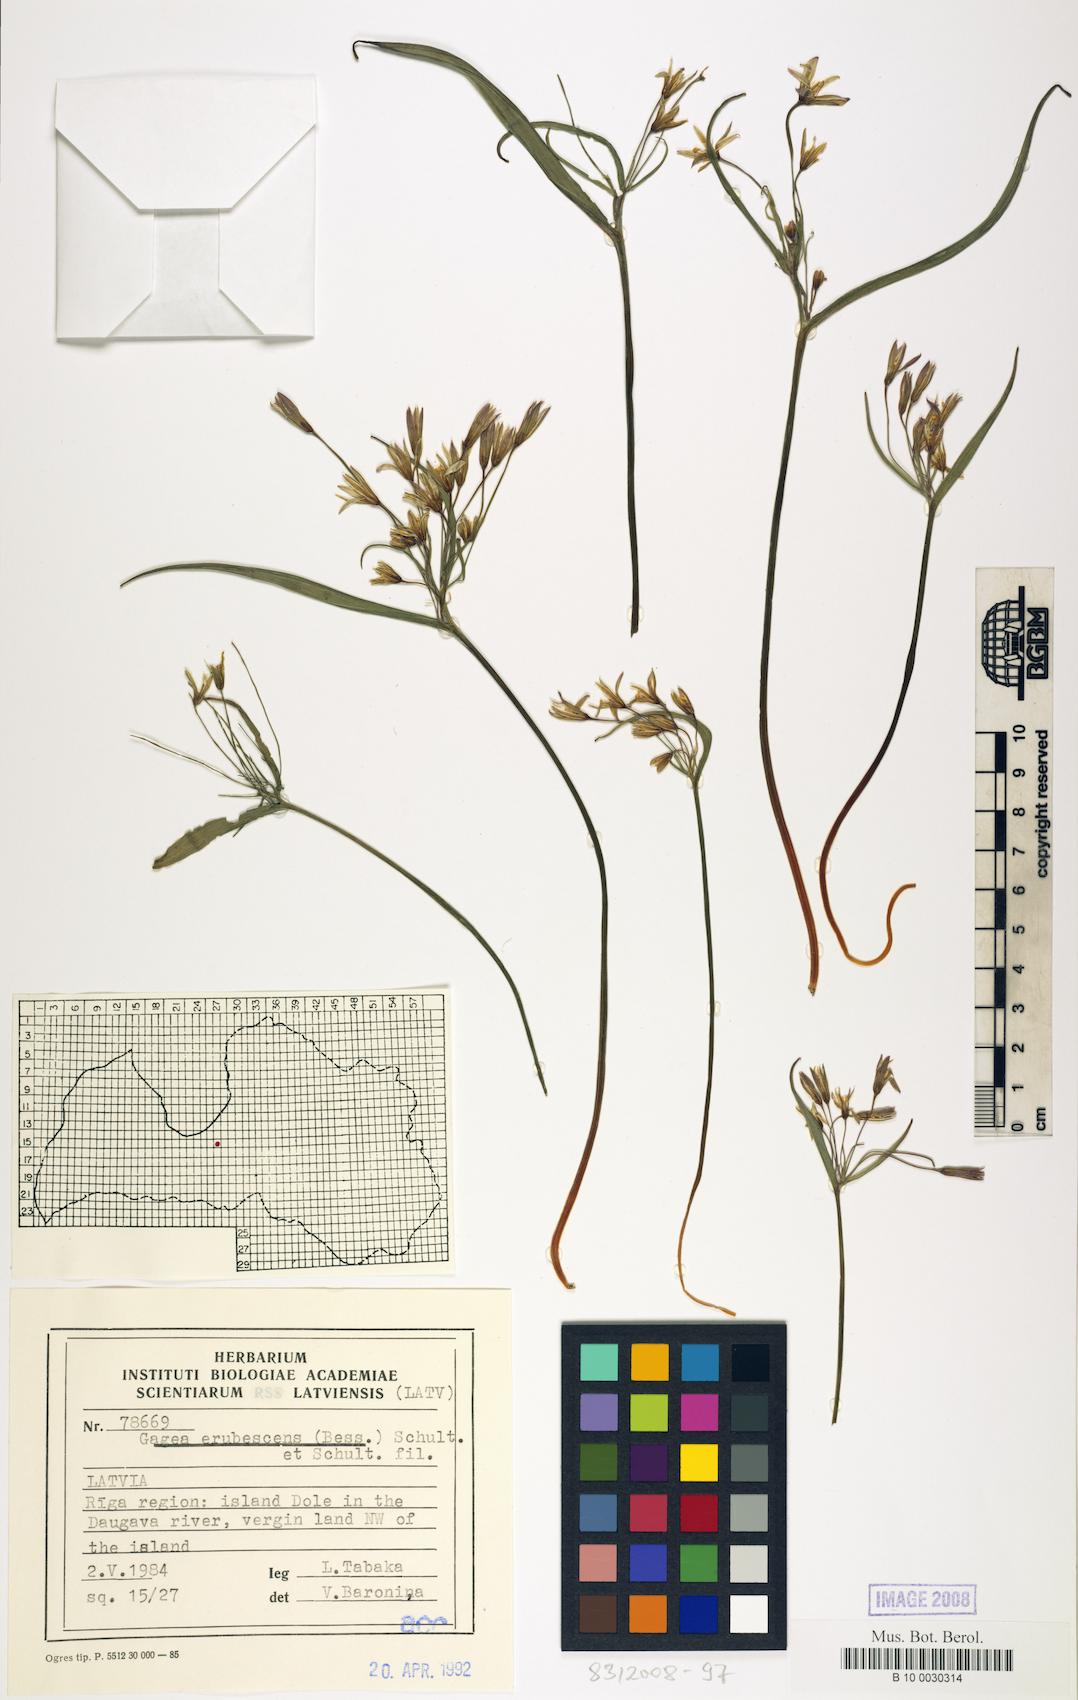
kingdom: Plantae
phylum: Tracheophyta
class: Liliopsida
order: Liliales
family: Liliaceae
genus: Gagea
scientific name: Gagea fragifera
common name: Lily
